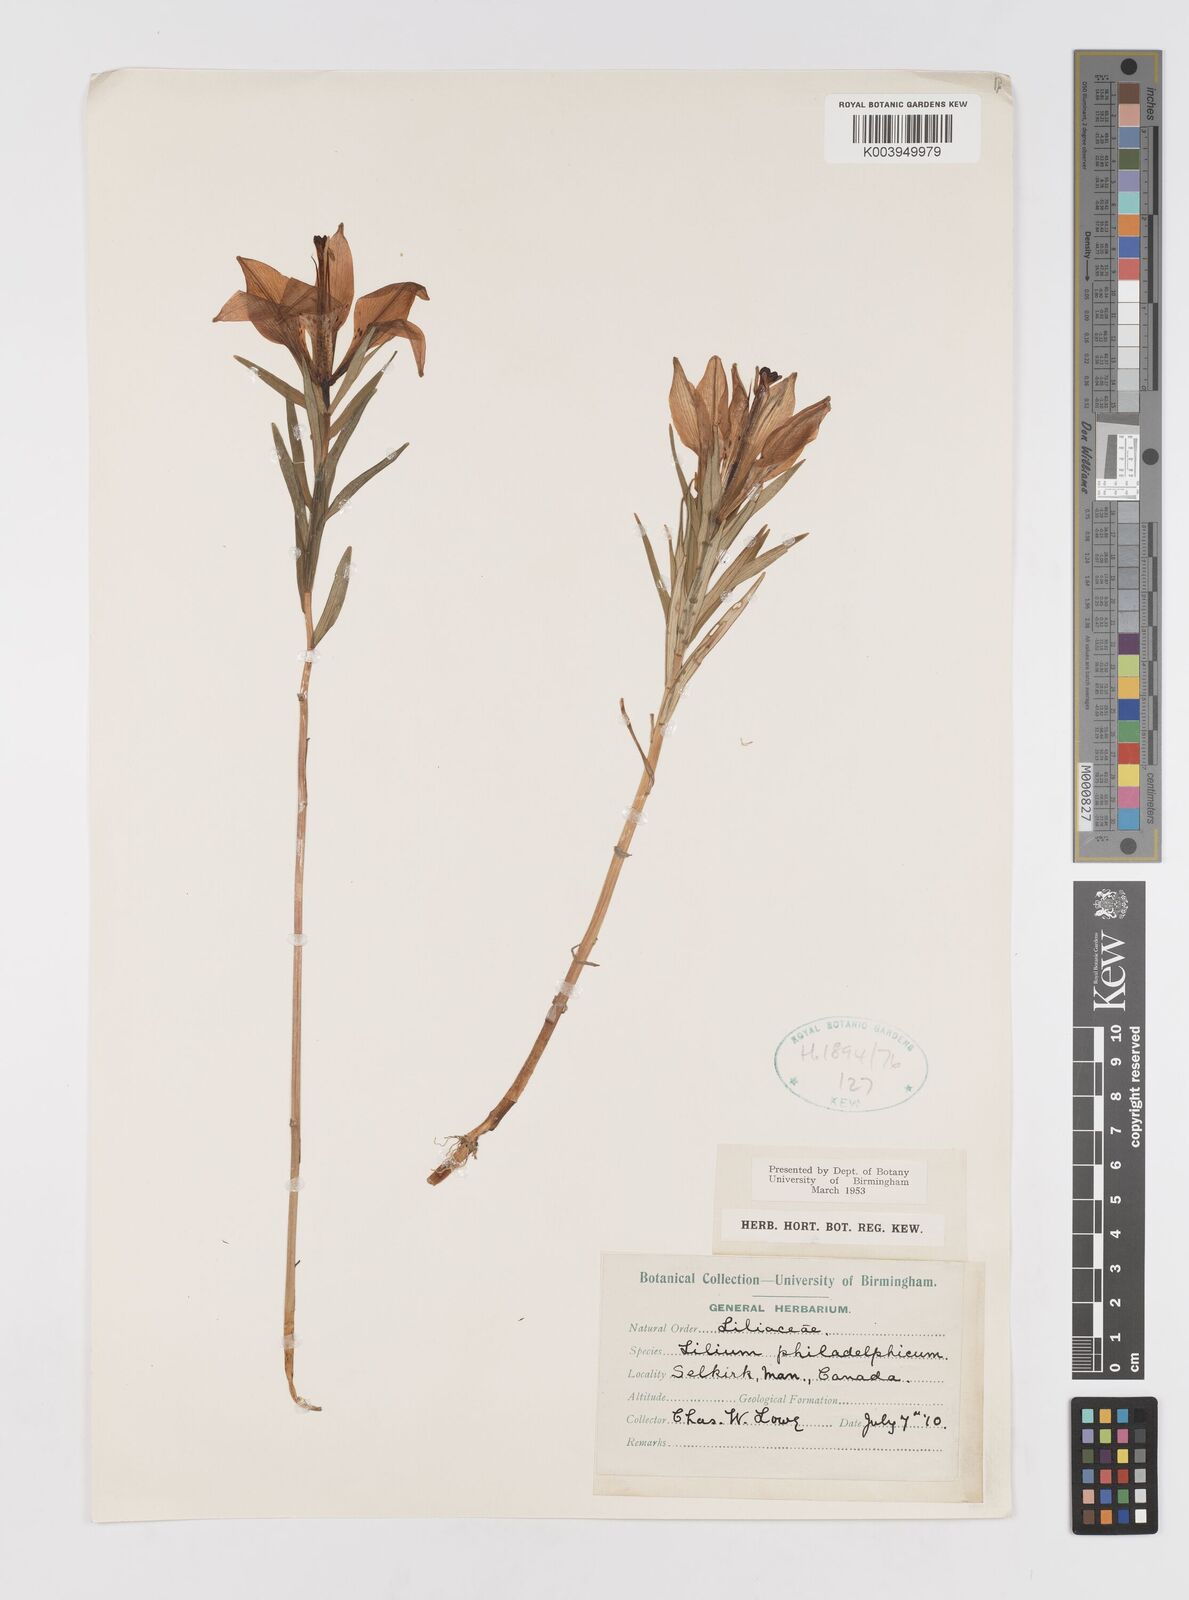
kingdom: Plantae
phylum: Tracheophyta
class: Liliopsida
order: Liliales
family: Liliaceae
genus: Lilium
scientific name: Lilium philadelphicum
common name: Red lily
